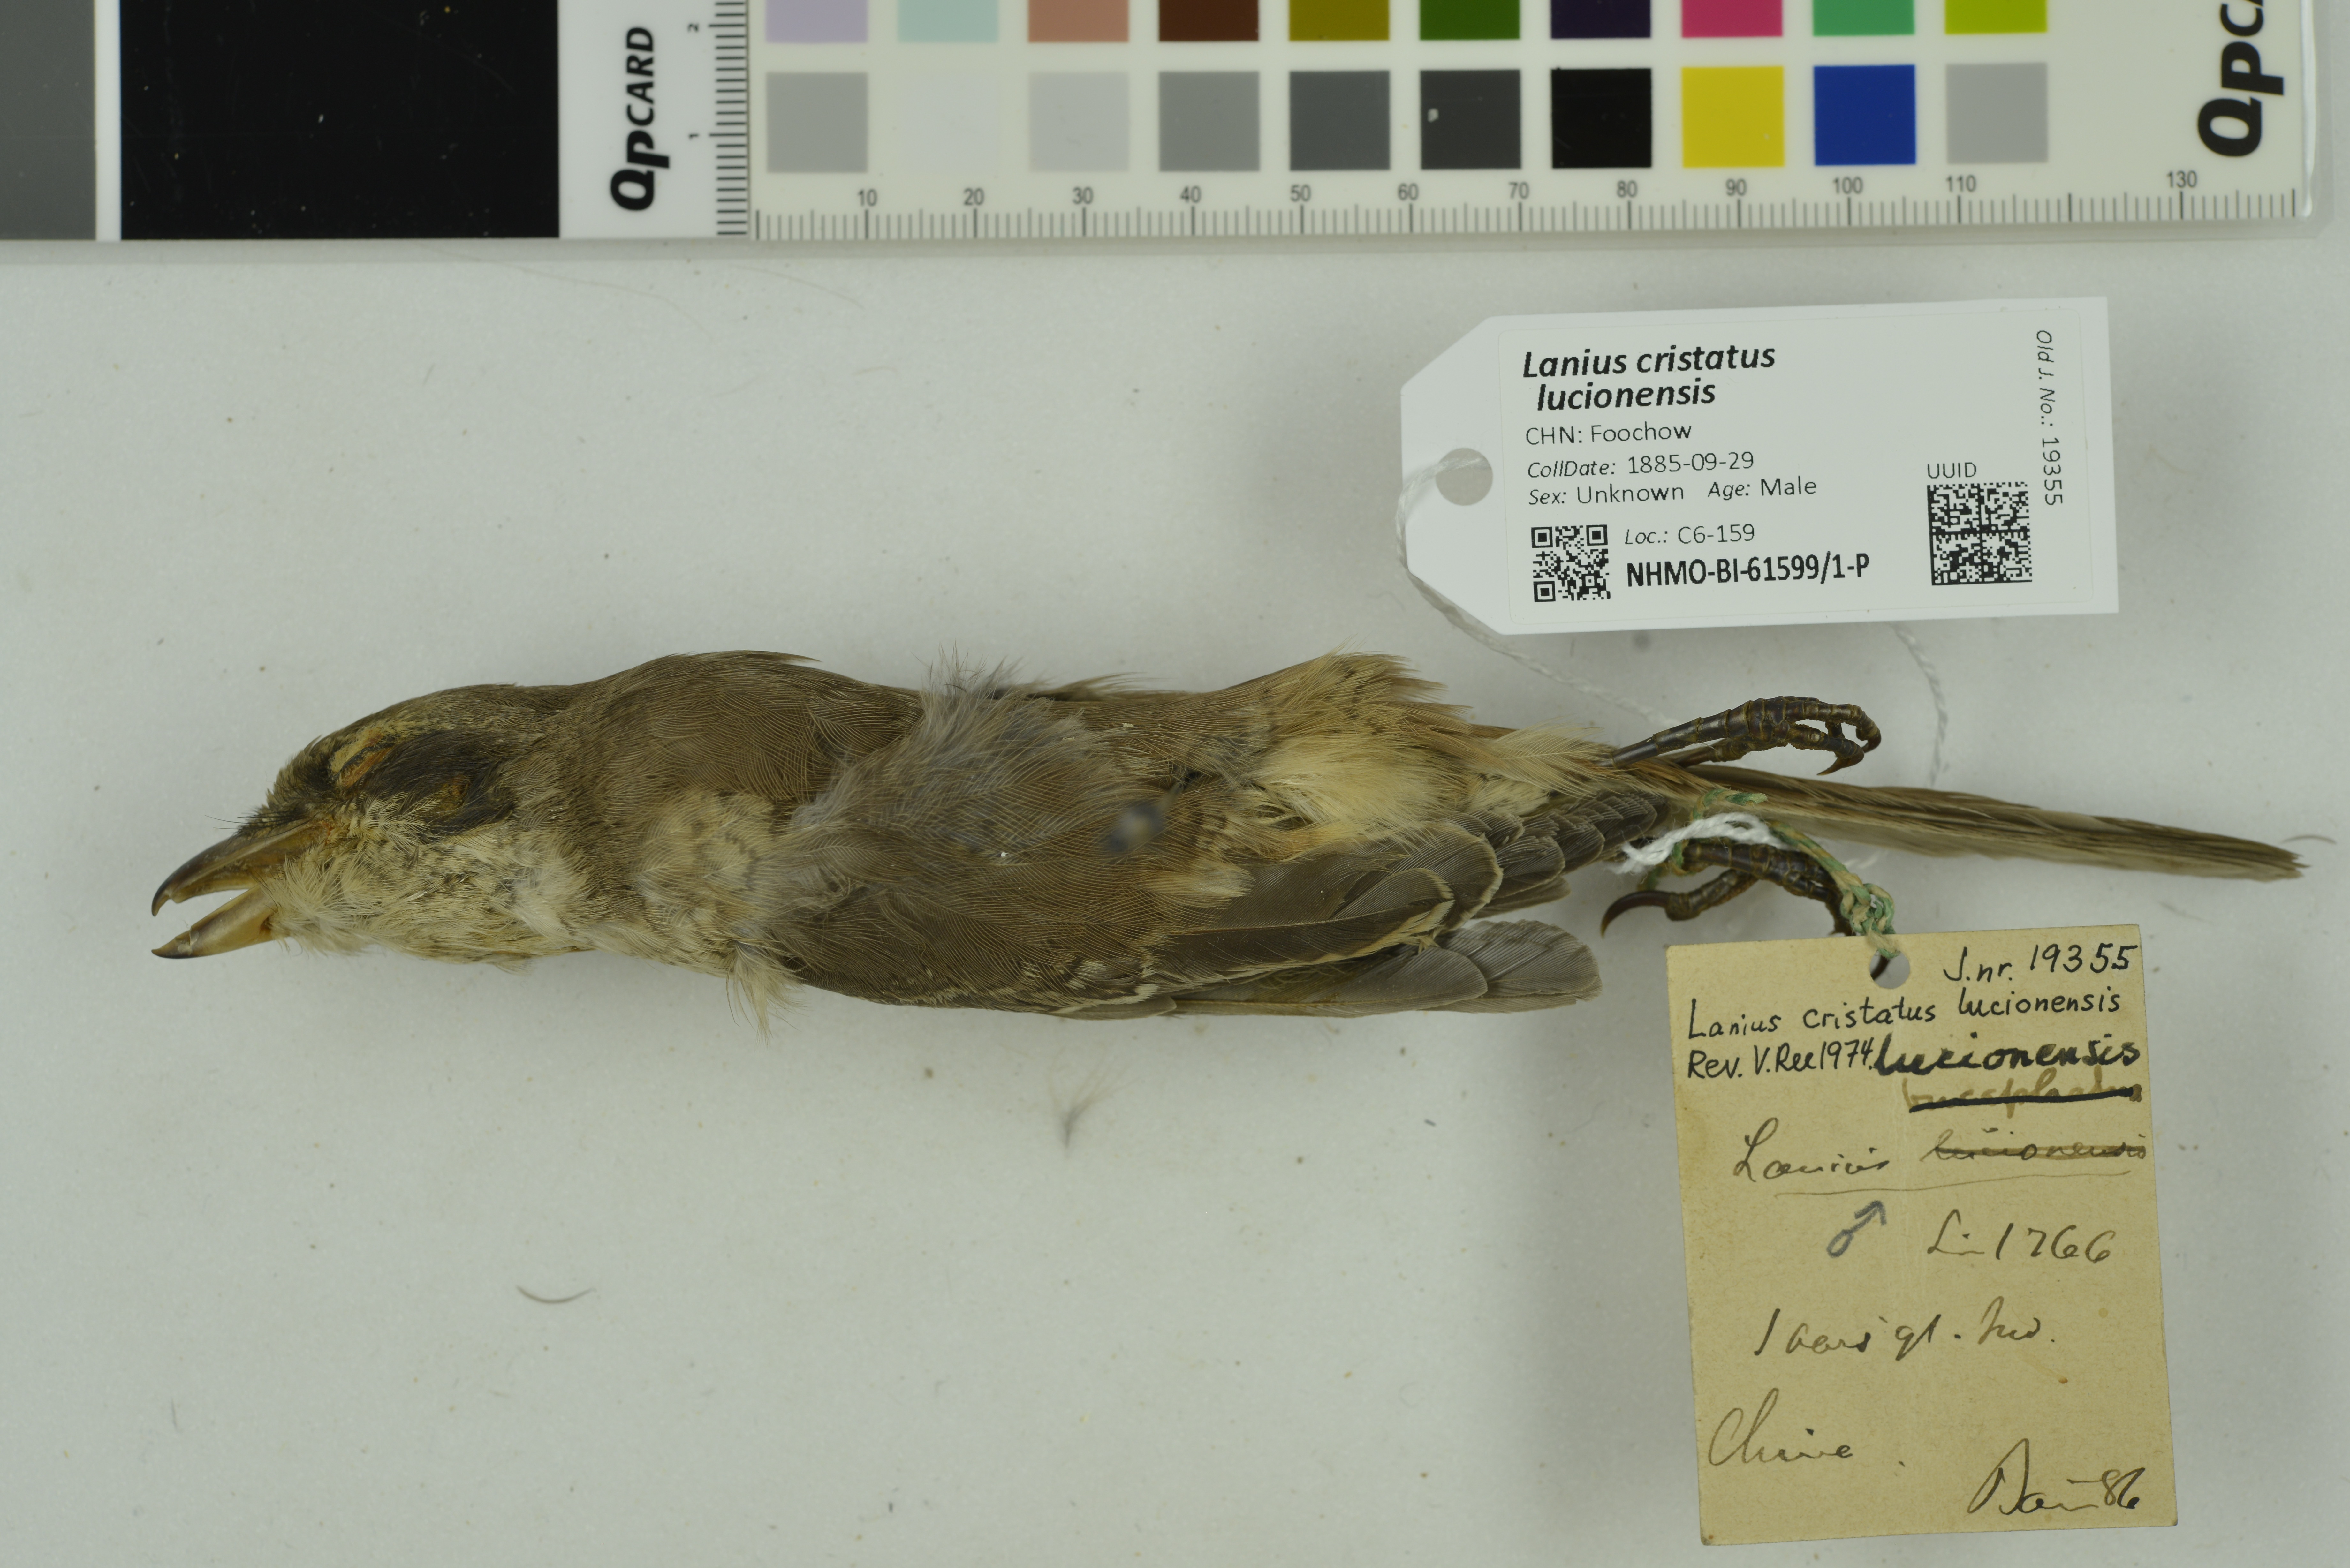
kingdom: Animalia
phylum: Chordata
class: Aves
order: Passeriformes
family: Laniidae
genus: Lanius
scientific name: Lanius cristatus
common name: Brown shrike
